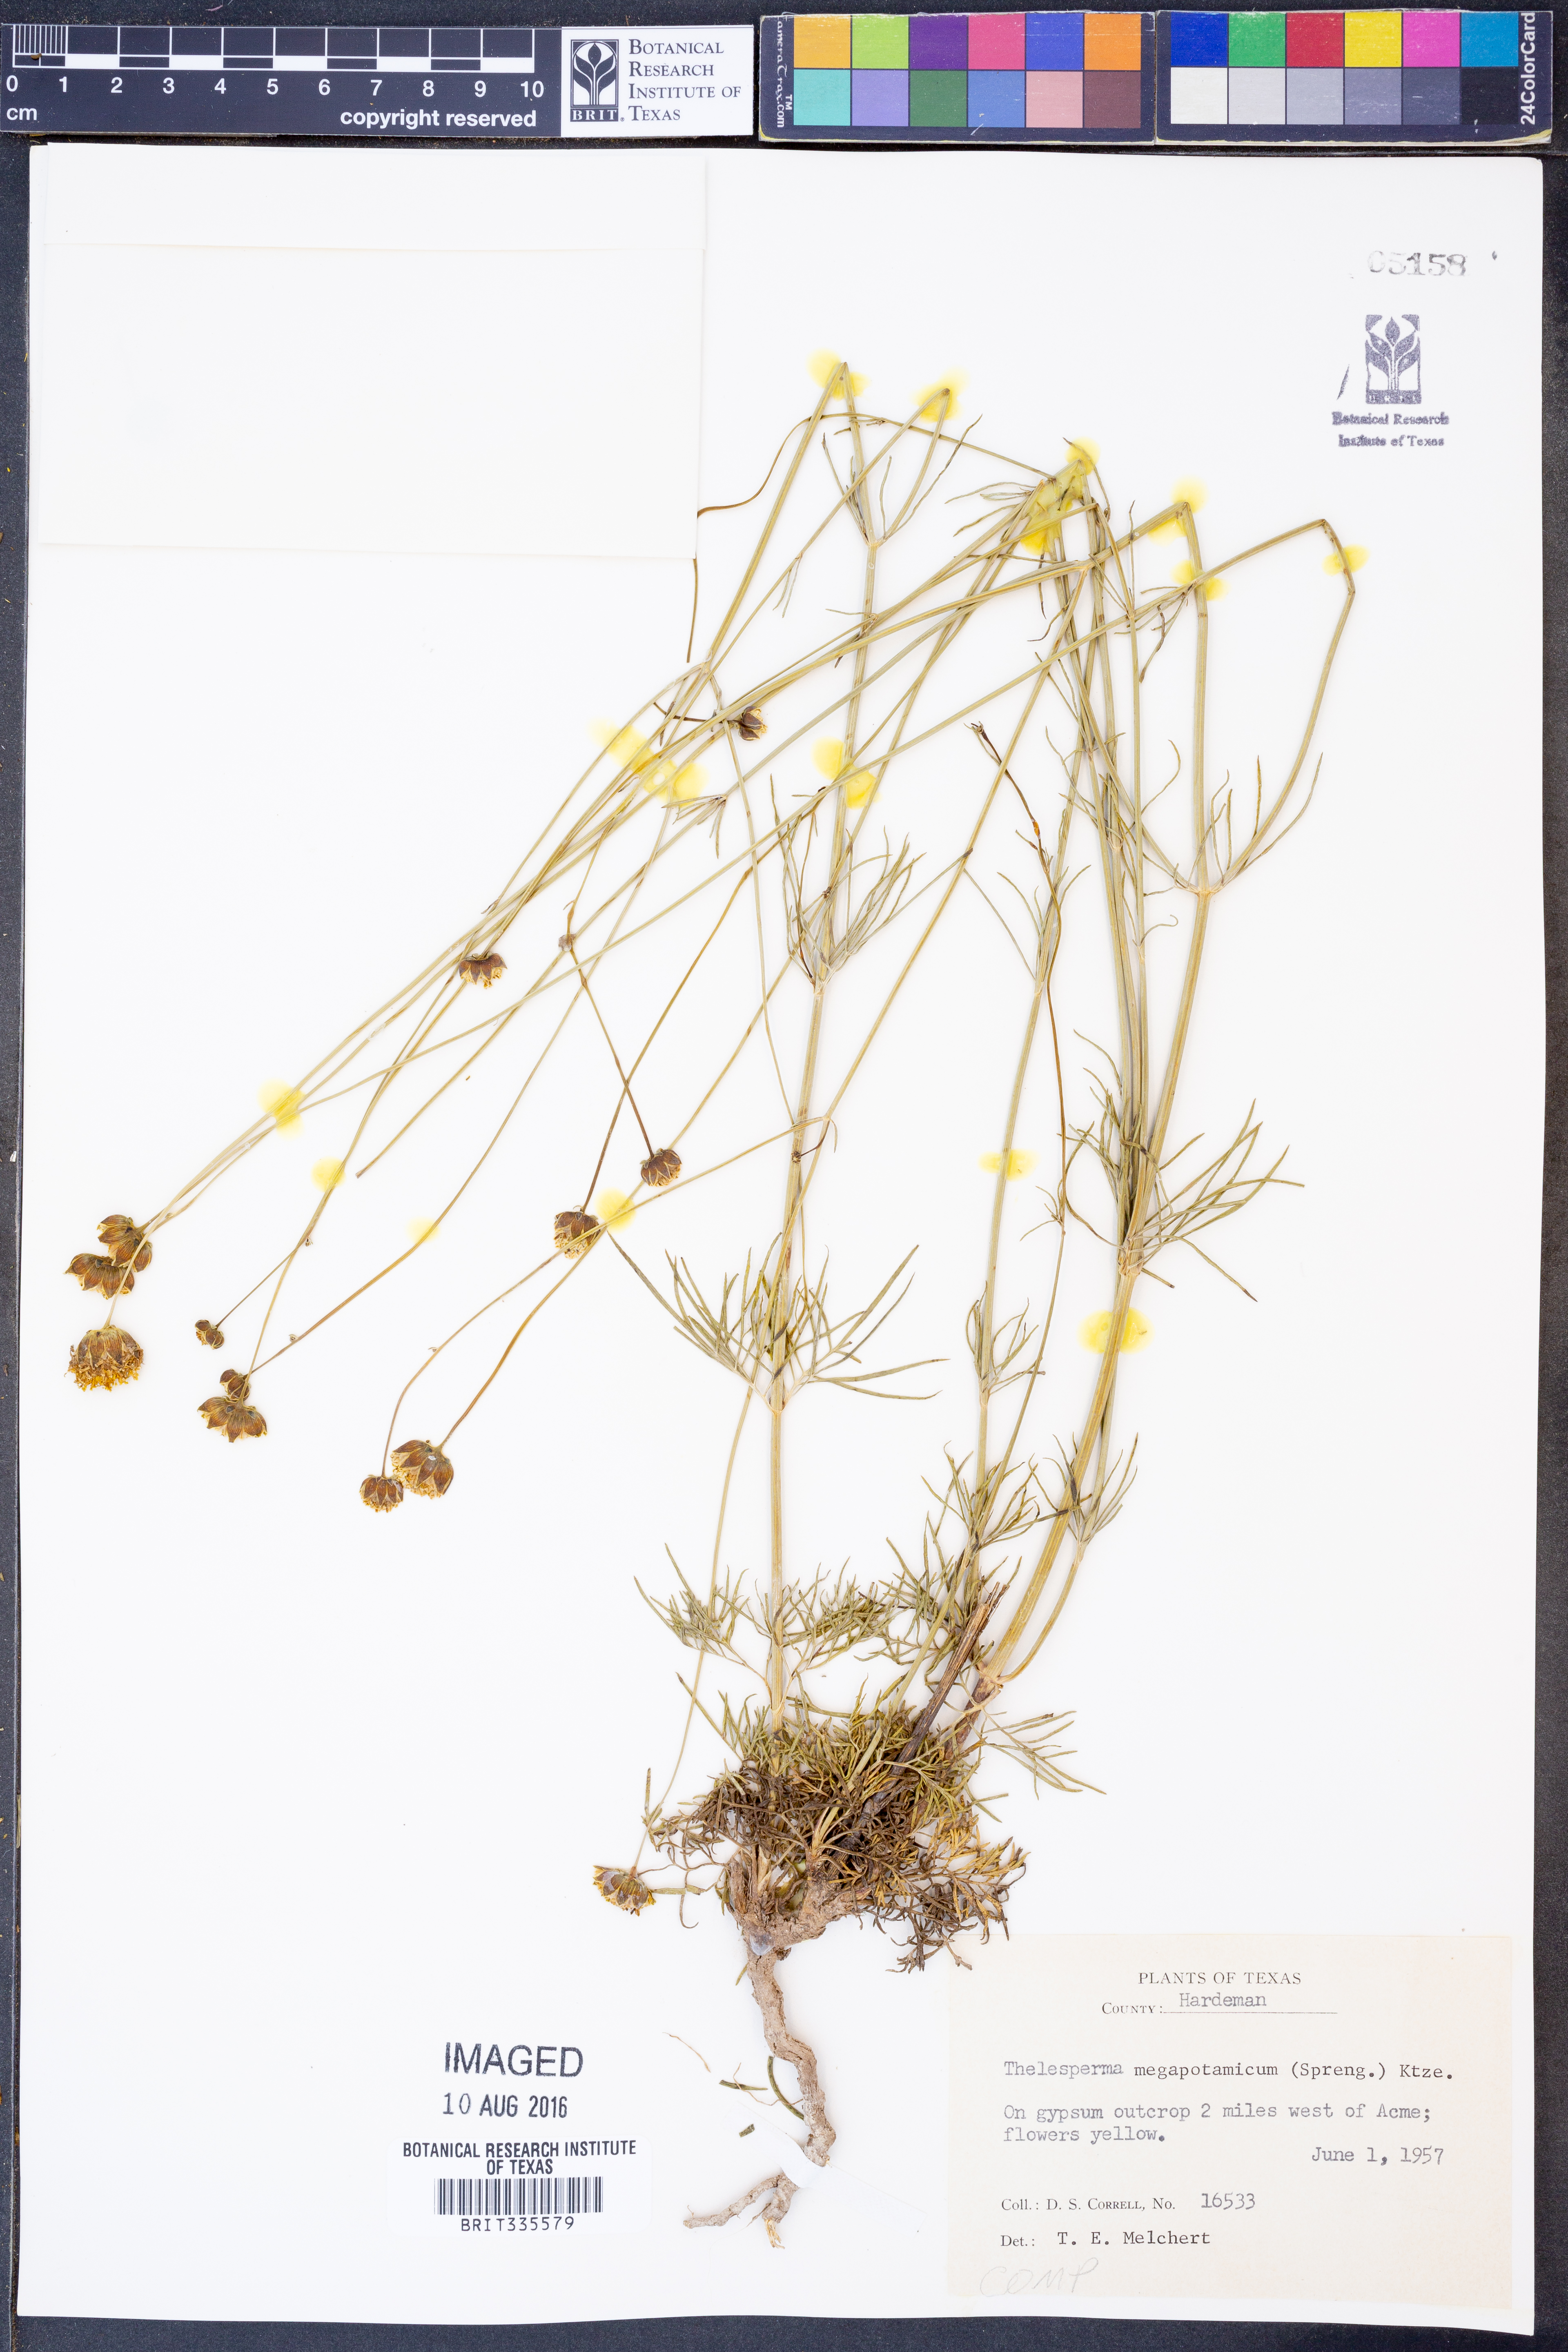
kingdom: Plantae
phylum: Tracheophyta
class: Magnoliopsida
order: Asterales
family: Asteraceae
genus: Thelesperma
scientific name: Thelesperma megapotamicum
